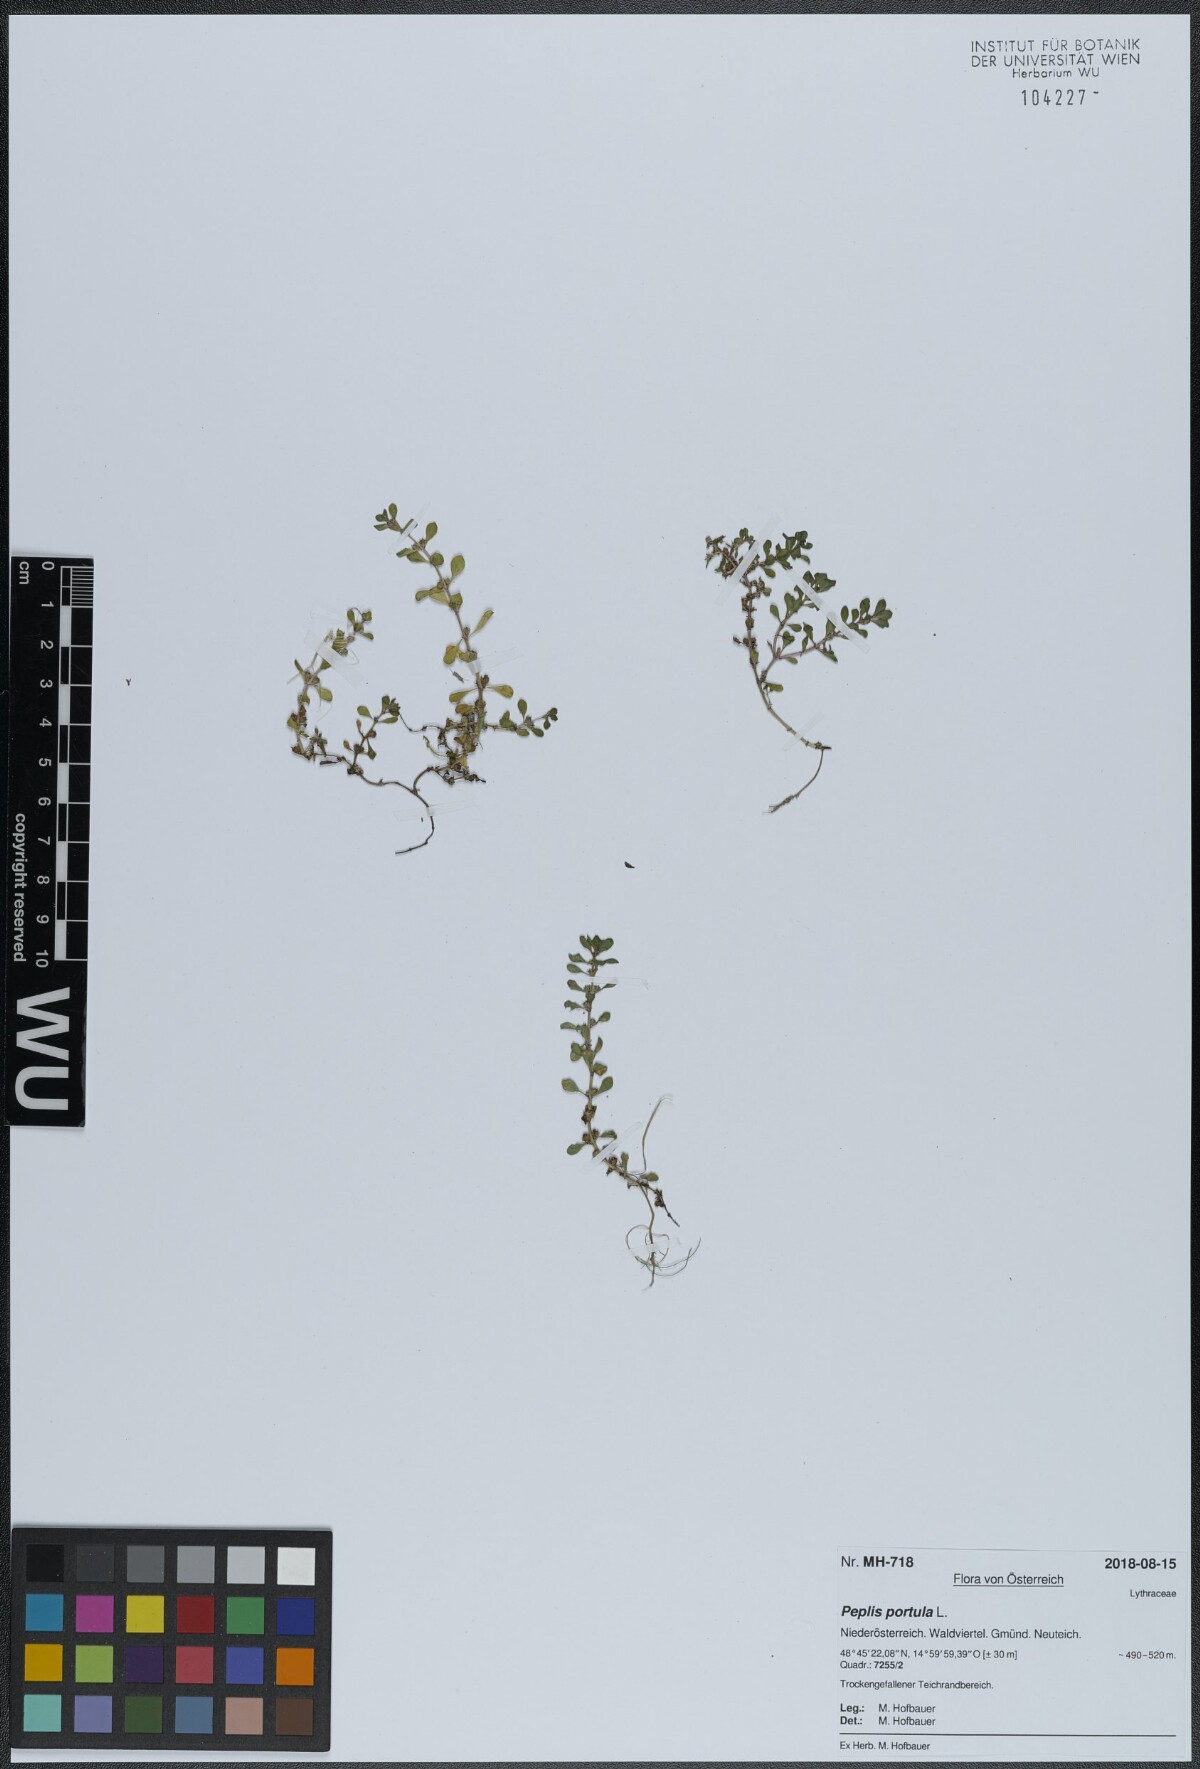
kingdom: Plantae
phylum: Tracheophyta
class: Magnoliopsida
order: Myrtales
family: Lythraceae
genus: Lythrum
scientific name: Lythrum portula
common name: Water purslane
